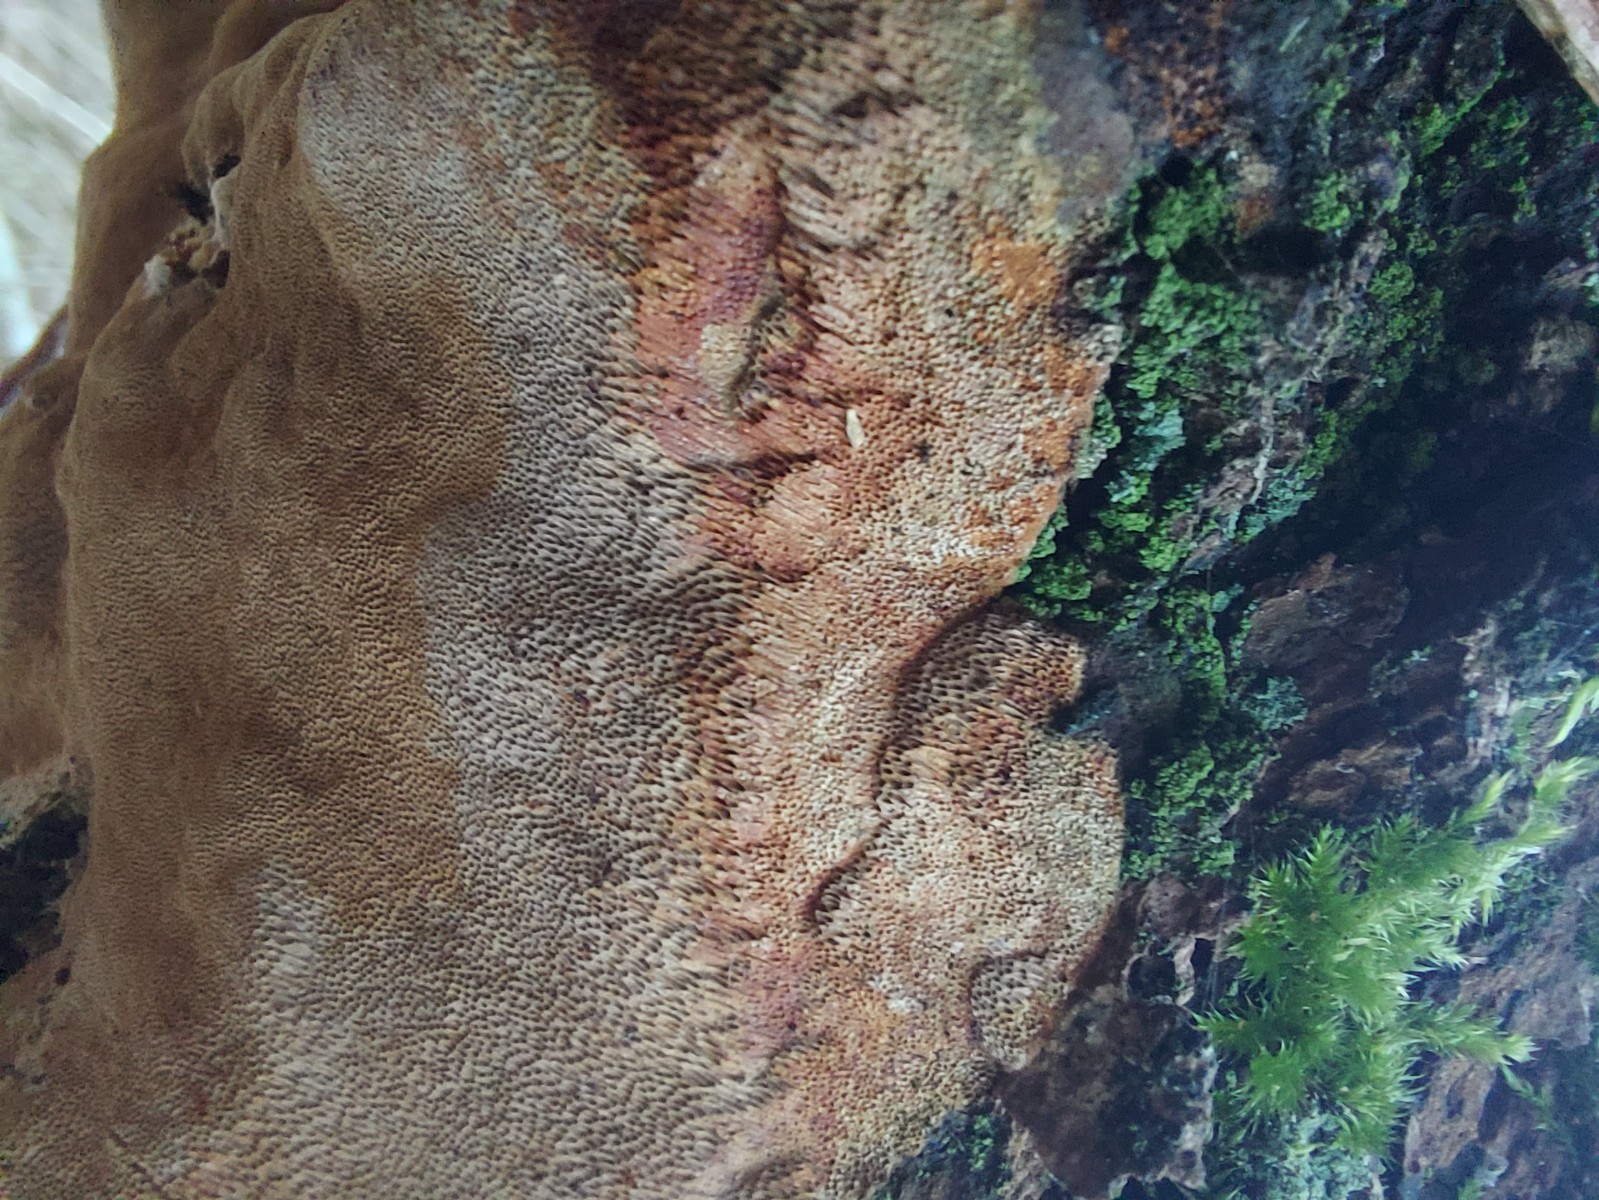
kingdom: Fungi
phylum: Basidiomycota
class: Agaricomycetes
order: Hymenochaetales
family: Hymenochaetaceae
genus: Fuscoporia
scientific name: Fuscoporia ferrea
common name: skorpe-ildporesvamp
